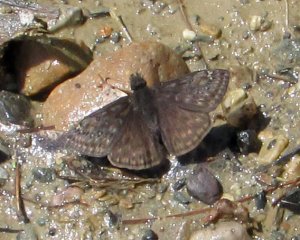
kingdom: Animalia
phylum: Arthropoda
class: Insecta
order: Lepidoptera
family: Hesperiidae
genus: Gesta
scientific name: Gesta
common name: Juvenal's Duskywing
